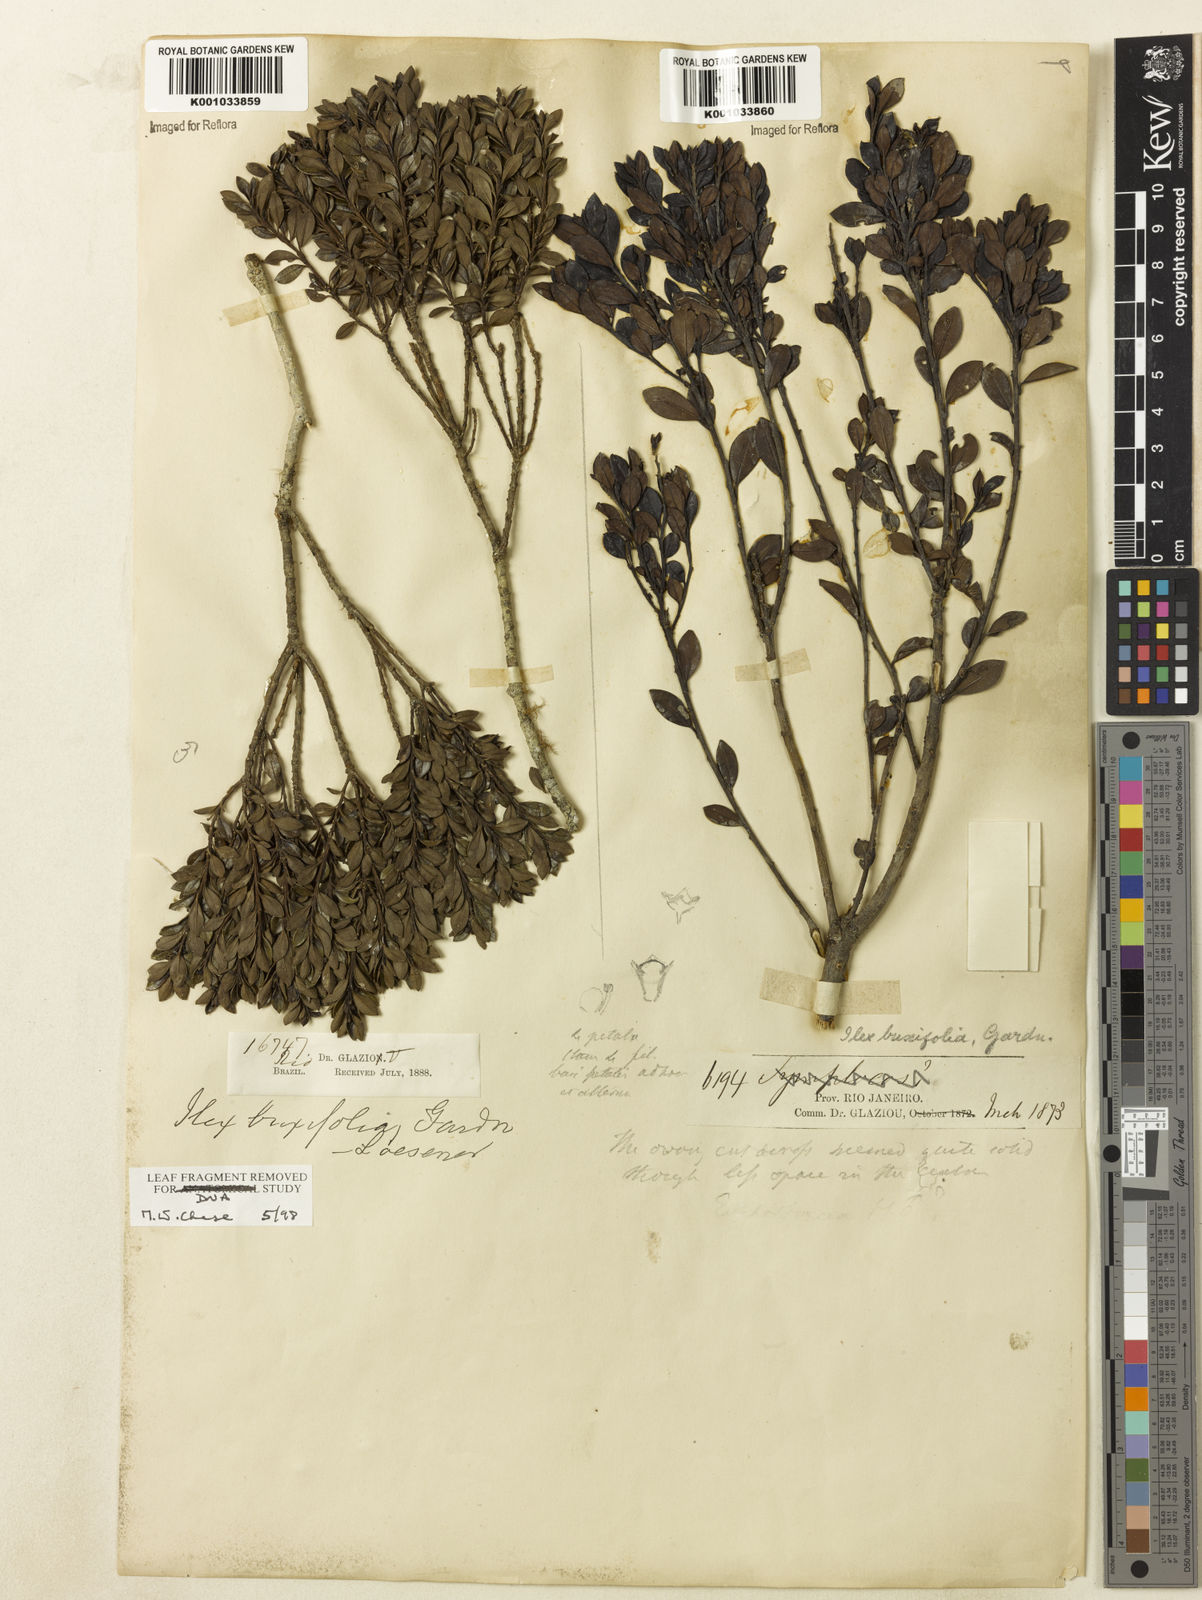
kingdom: Plantae
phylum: Tracheophyta
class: Magnoliopsida
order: Aquifoliales
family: Aquifoliaceae
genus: Ilex
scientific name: Ilex buxifolia
